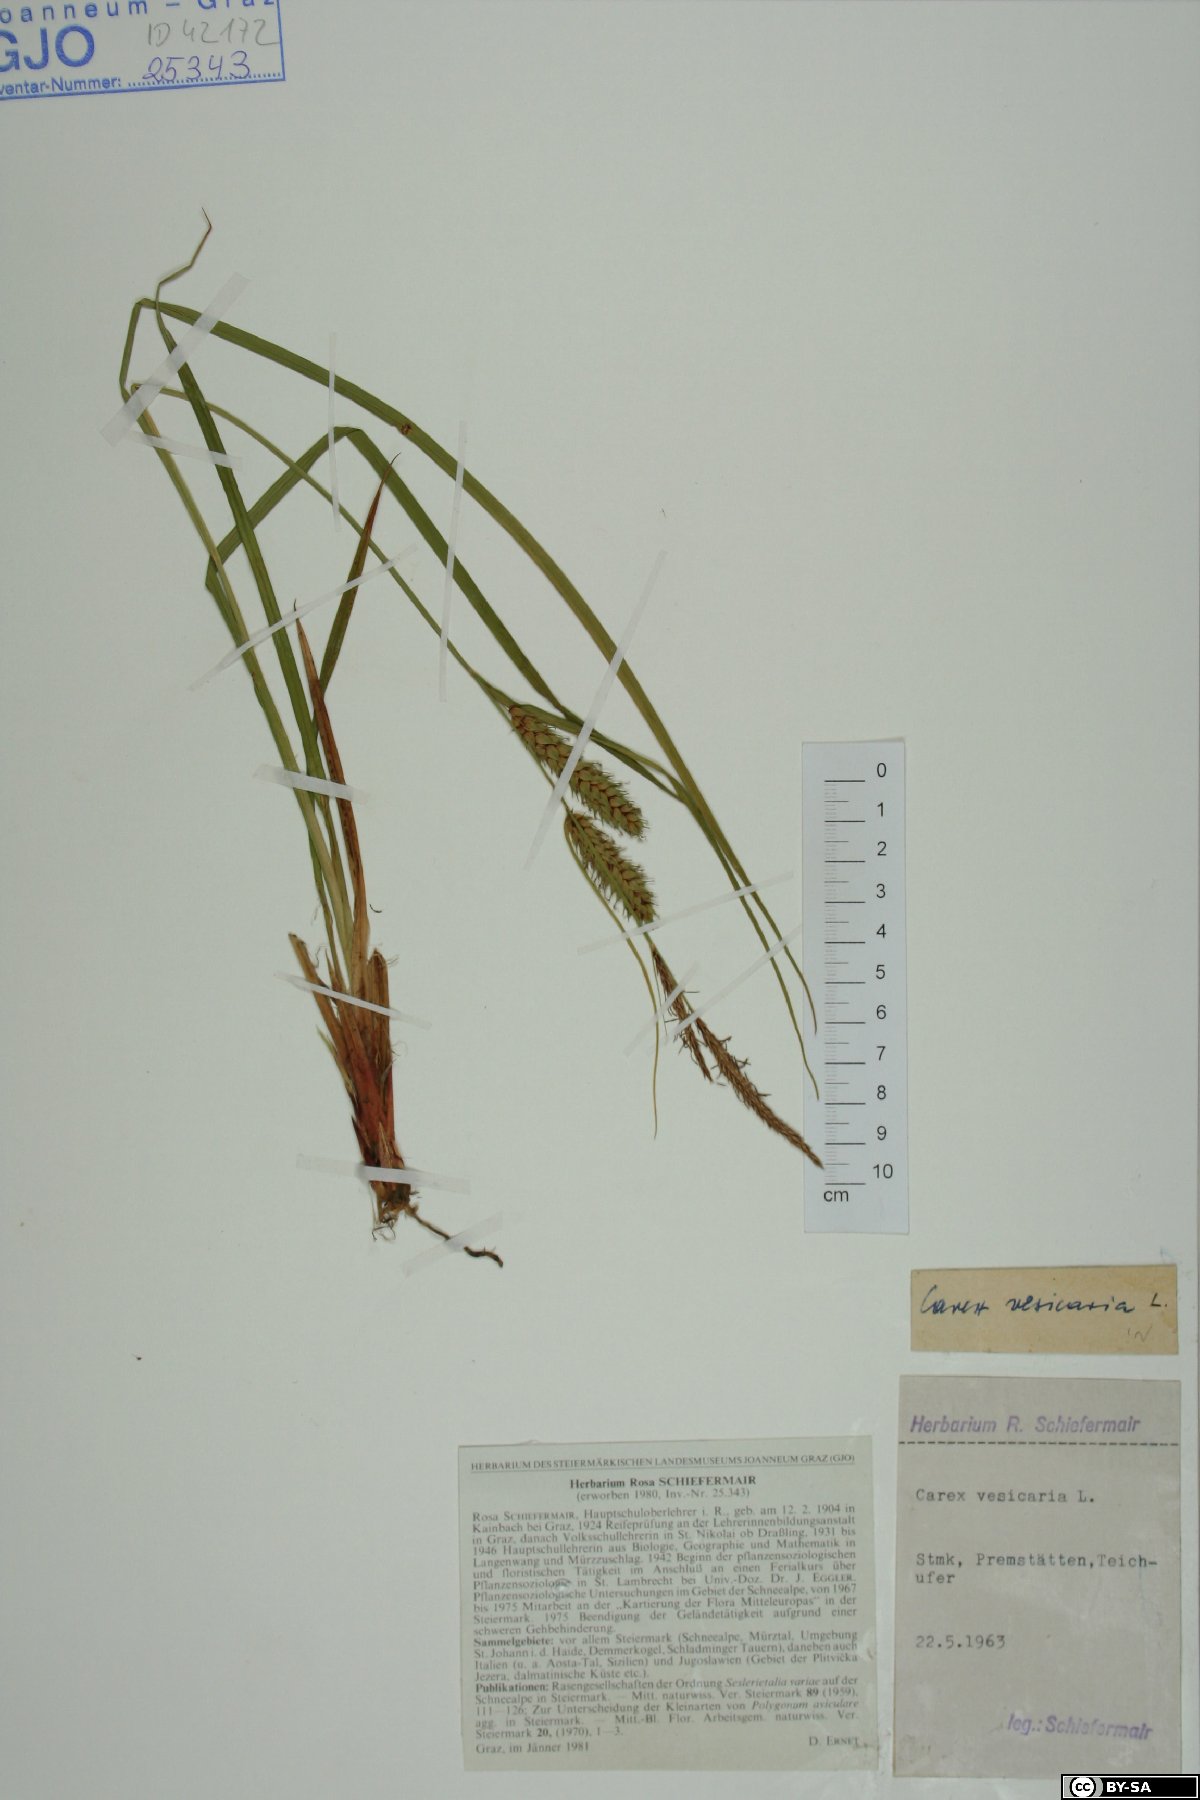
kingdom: Plantae
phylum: Tracheophyta
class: Liliopsida
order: Poales
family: Cyperaceae
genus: Carex
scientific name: Carex vesicaria
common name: Bladder-sedge
